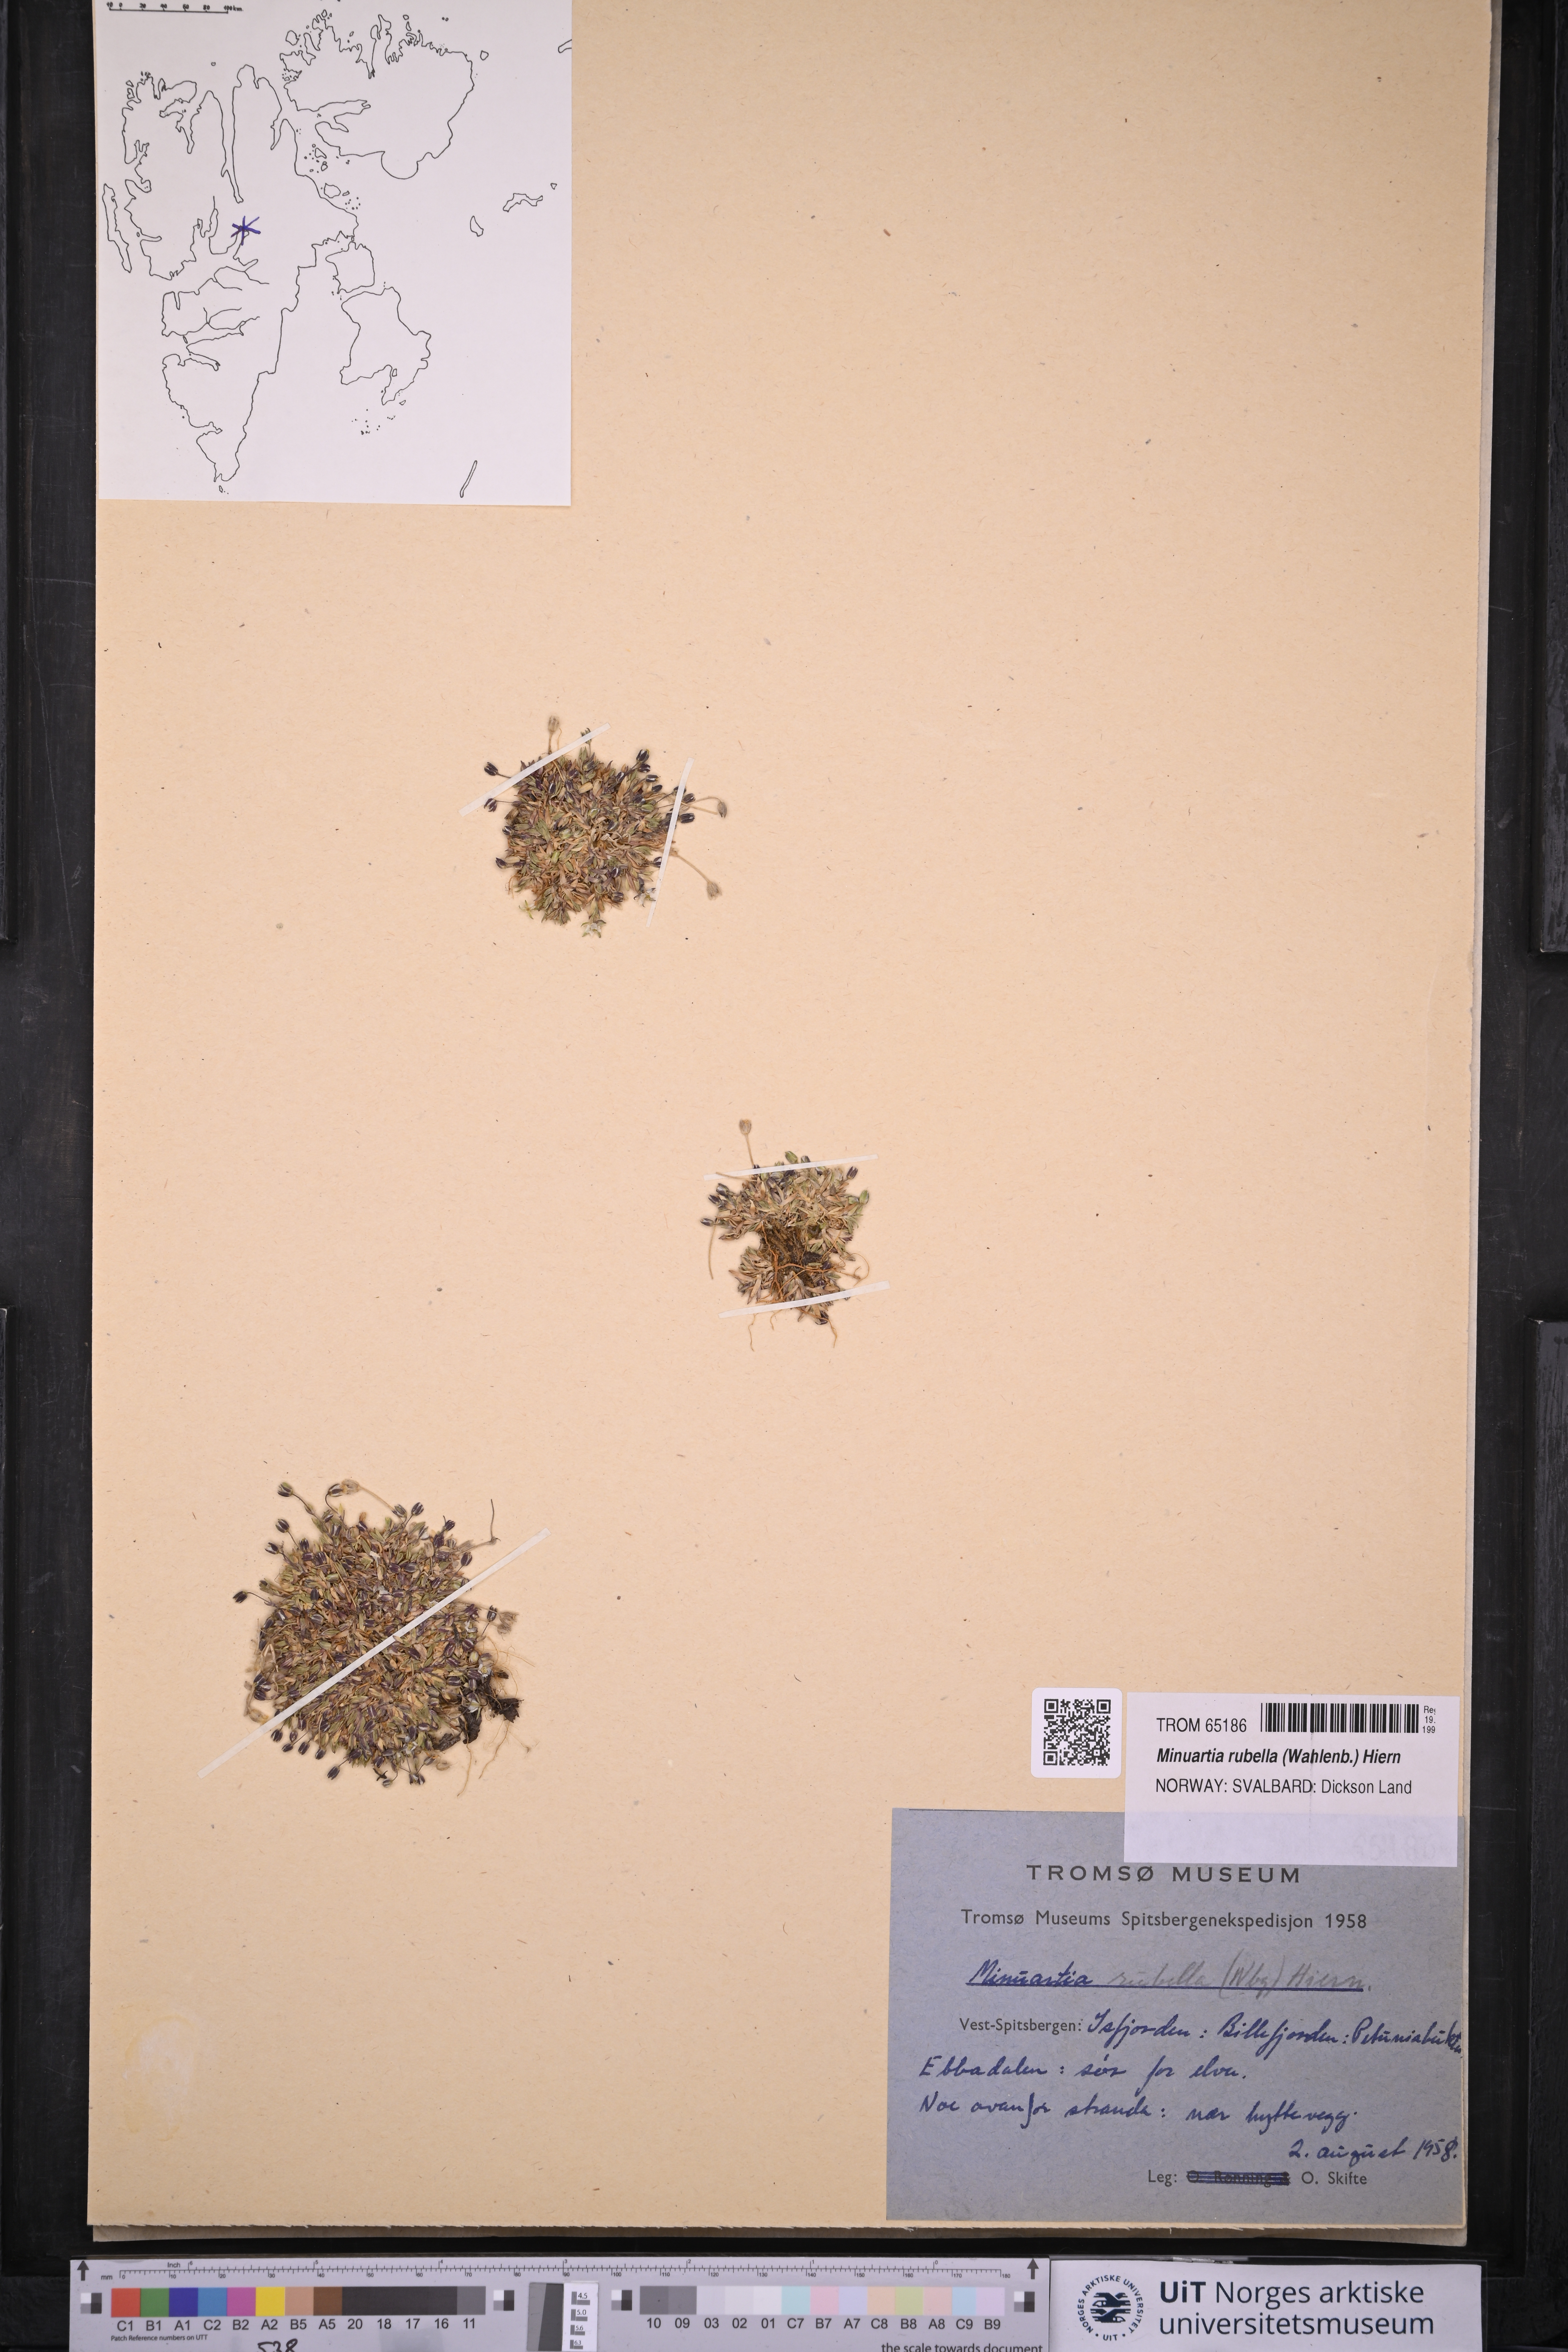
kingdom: Plantae
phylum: Tracheophyta
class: Magnoliopsida
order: Caryophyllales
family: Caryophyllaceae
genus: Sabulina
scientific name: Sabulina rubella
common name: Beautiful sandwort
